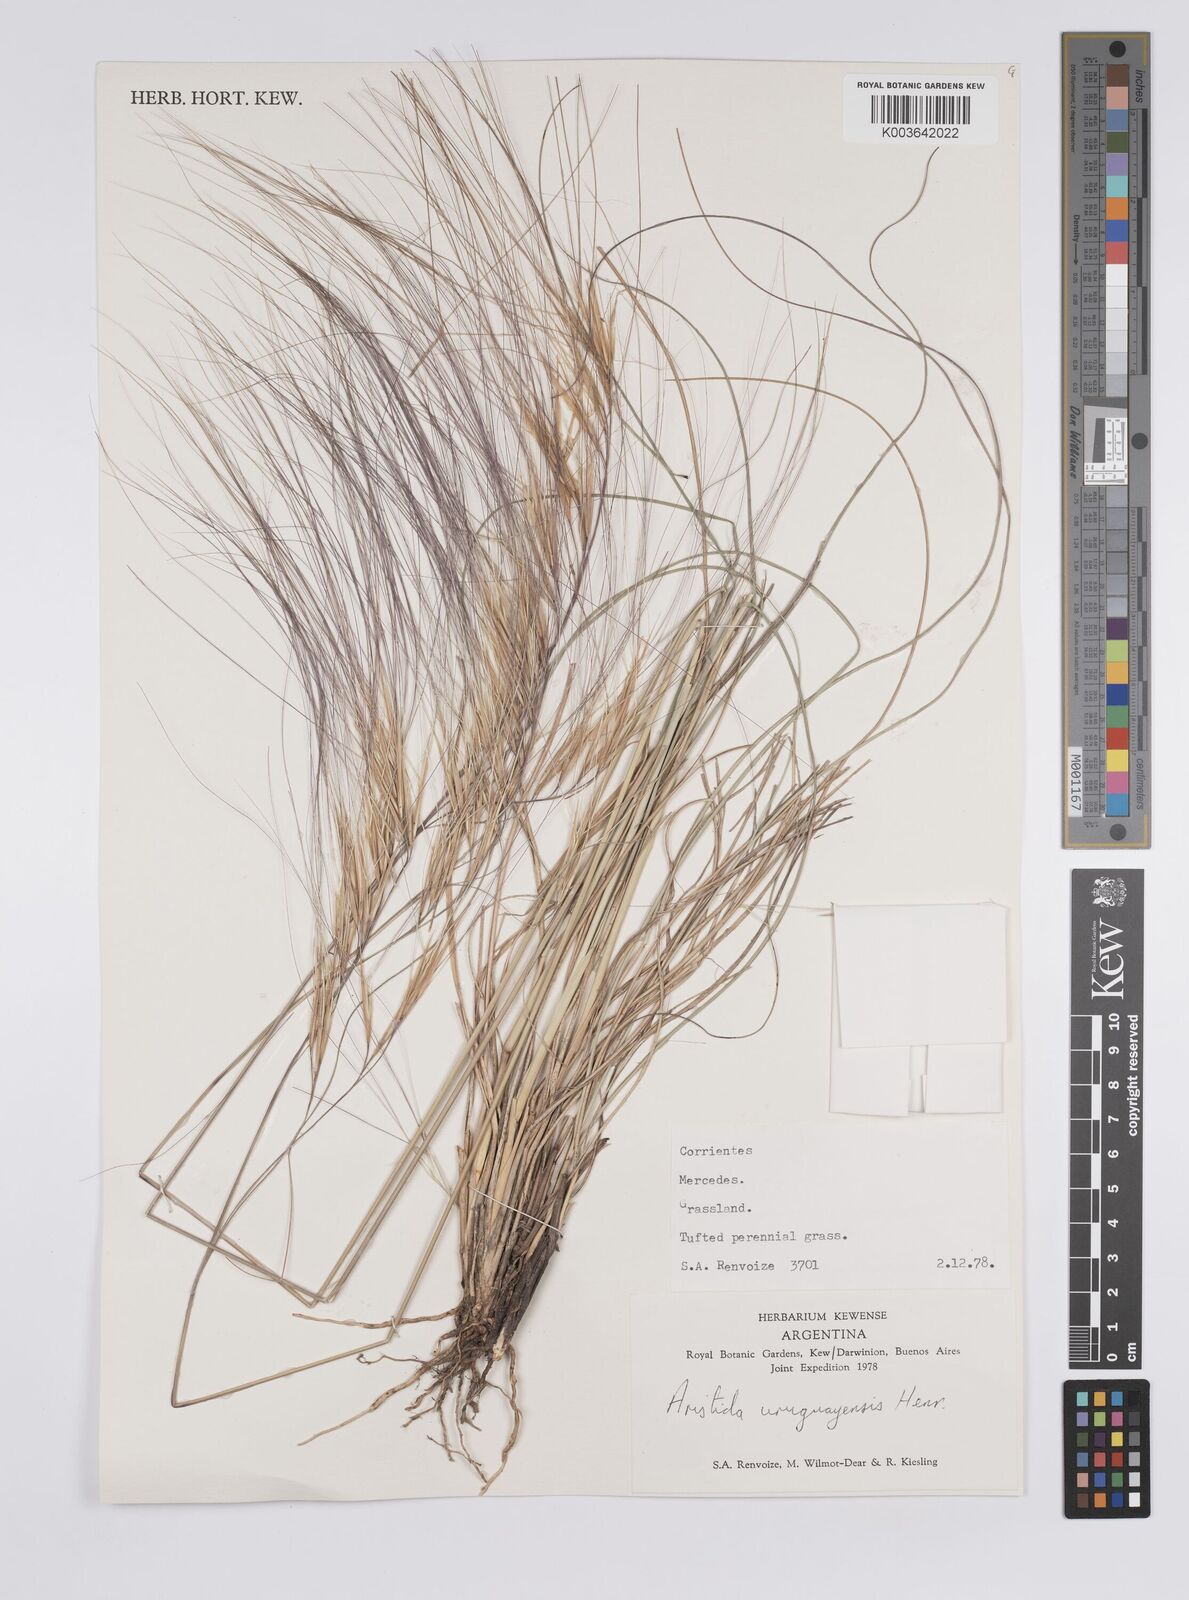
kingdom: Plantae
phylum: Tracheophyta
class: Liliopsida
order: Poales
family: Poaceae
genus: Aristida
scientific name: Aristida uruguayensis
